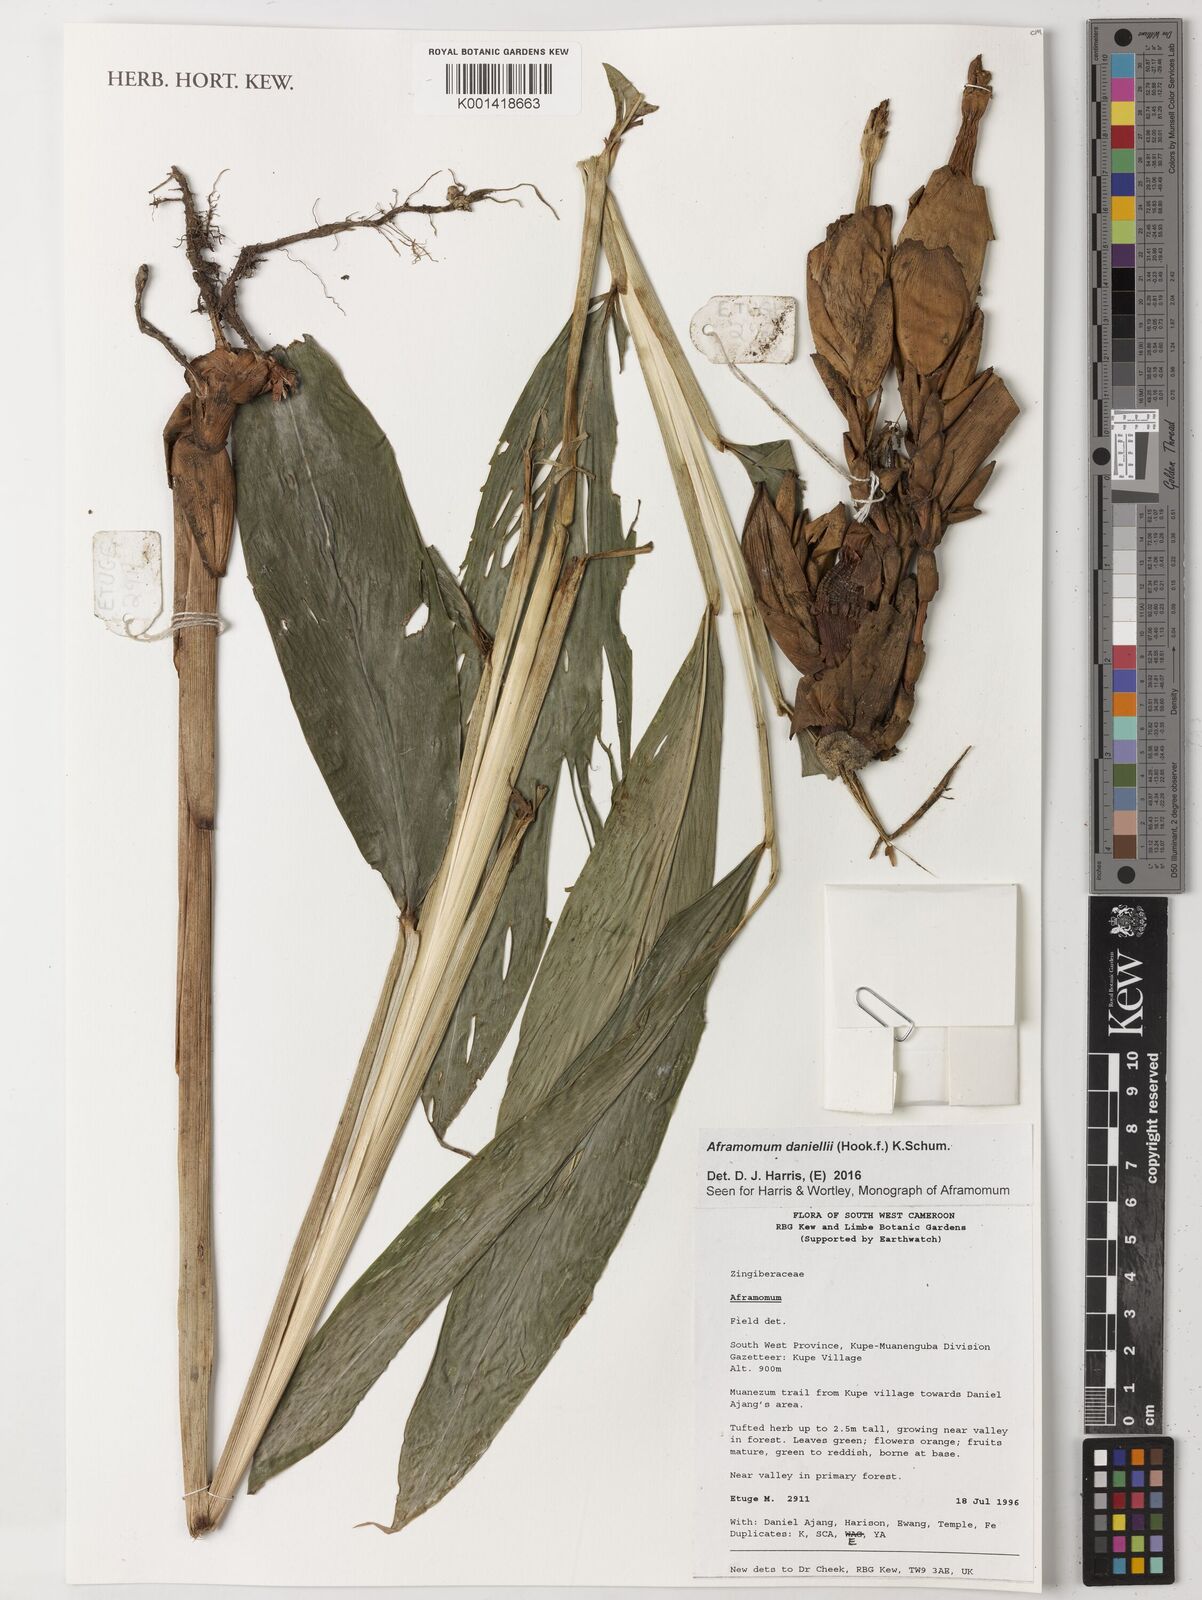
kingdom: Plantae
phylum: Tracheophyta
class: Liliopsida
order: Zingiberales
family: Zingiberaceae
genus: Aframomum
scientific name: Aframomum daniellii
